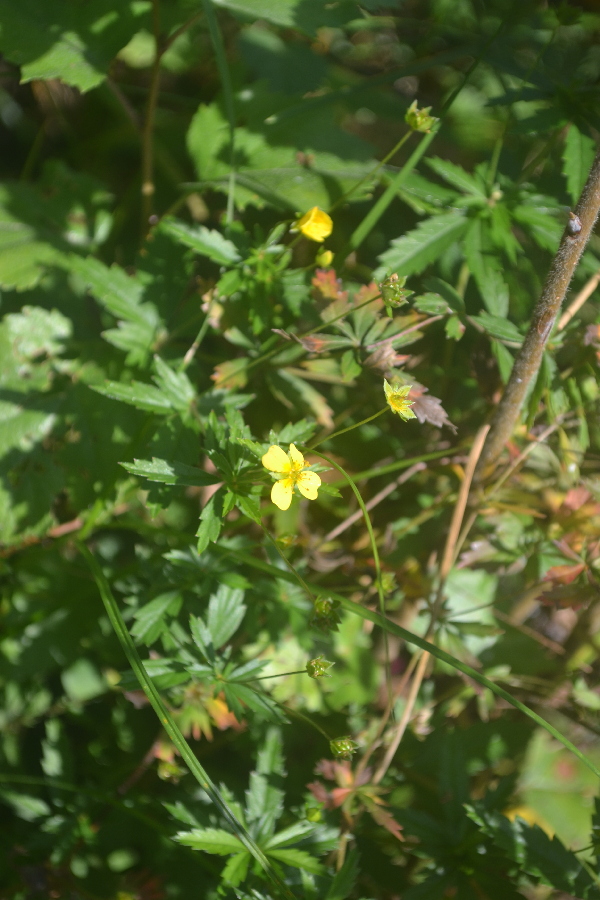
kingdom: Plantae
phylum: Tracheophyta
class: Magnoliopsida
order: Rosales
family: Rosaceae
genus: Potentilla
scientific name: Potentilla erecta
